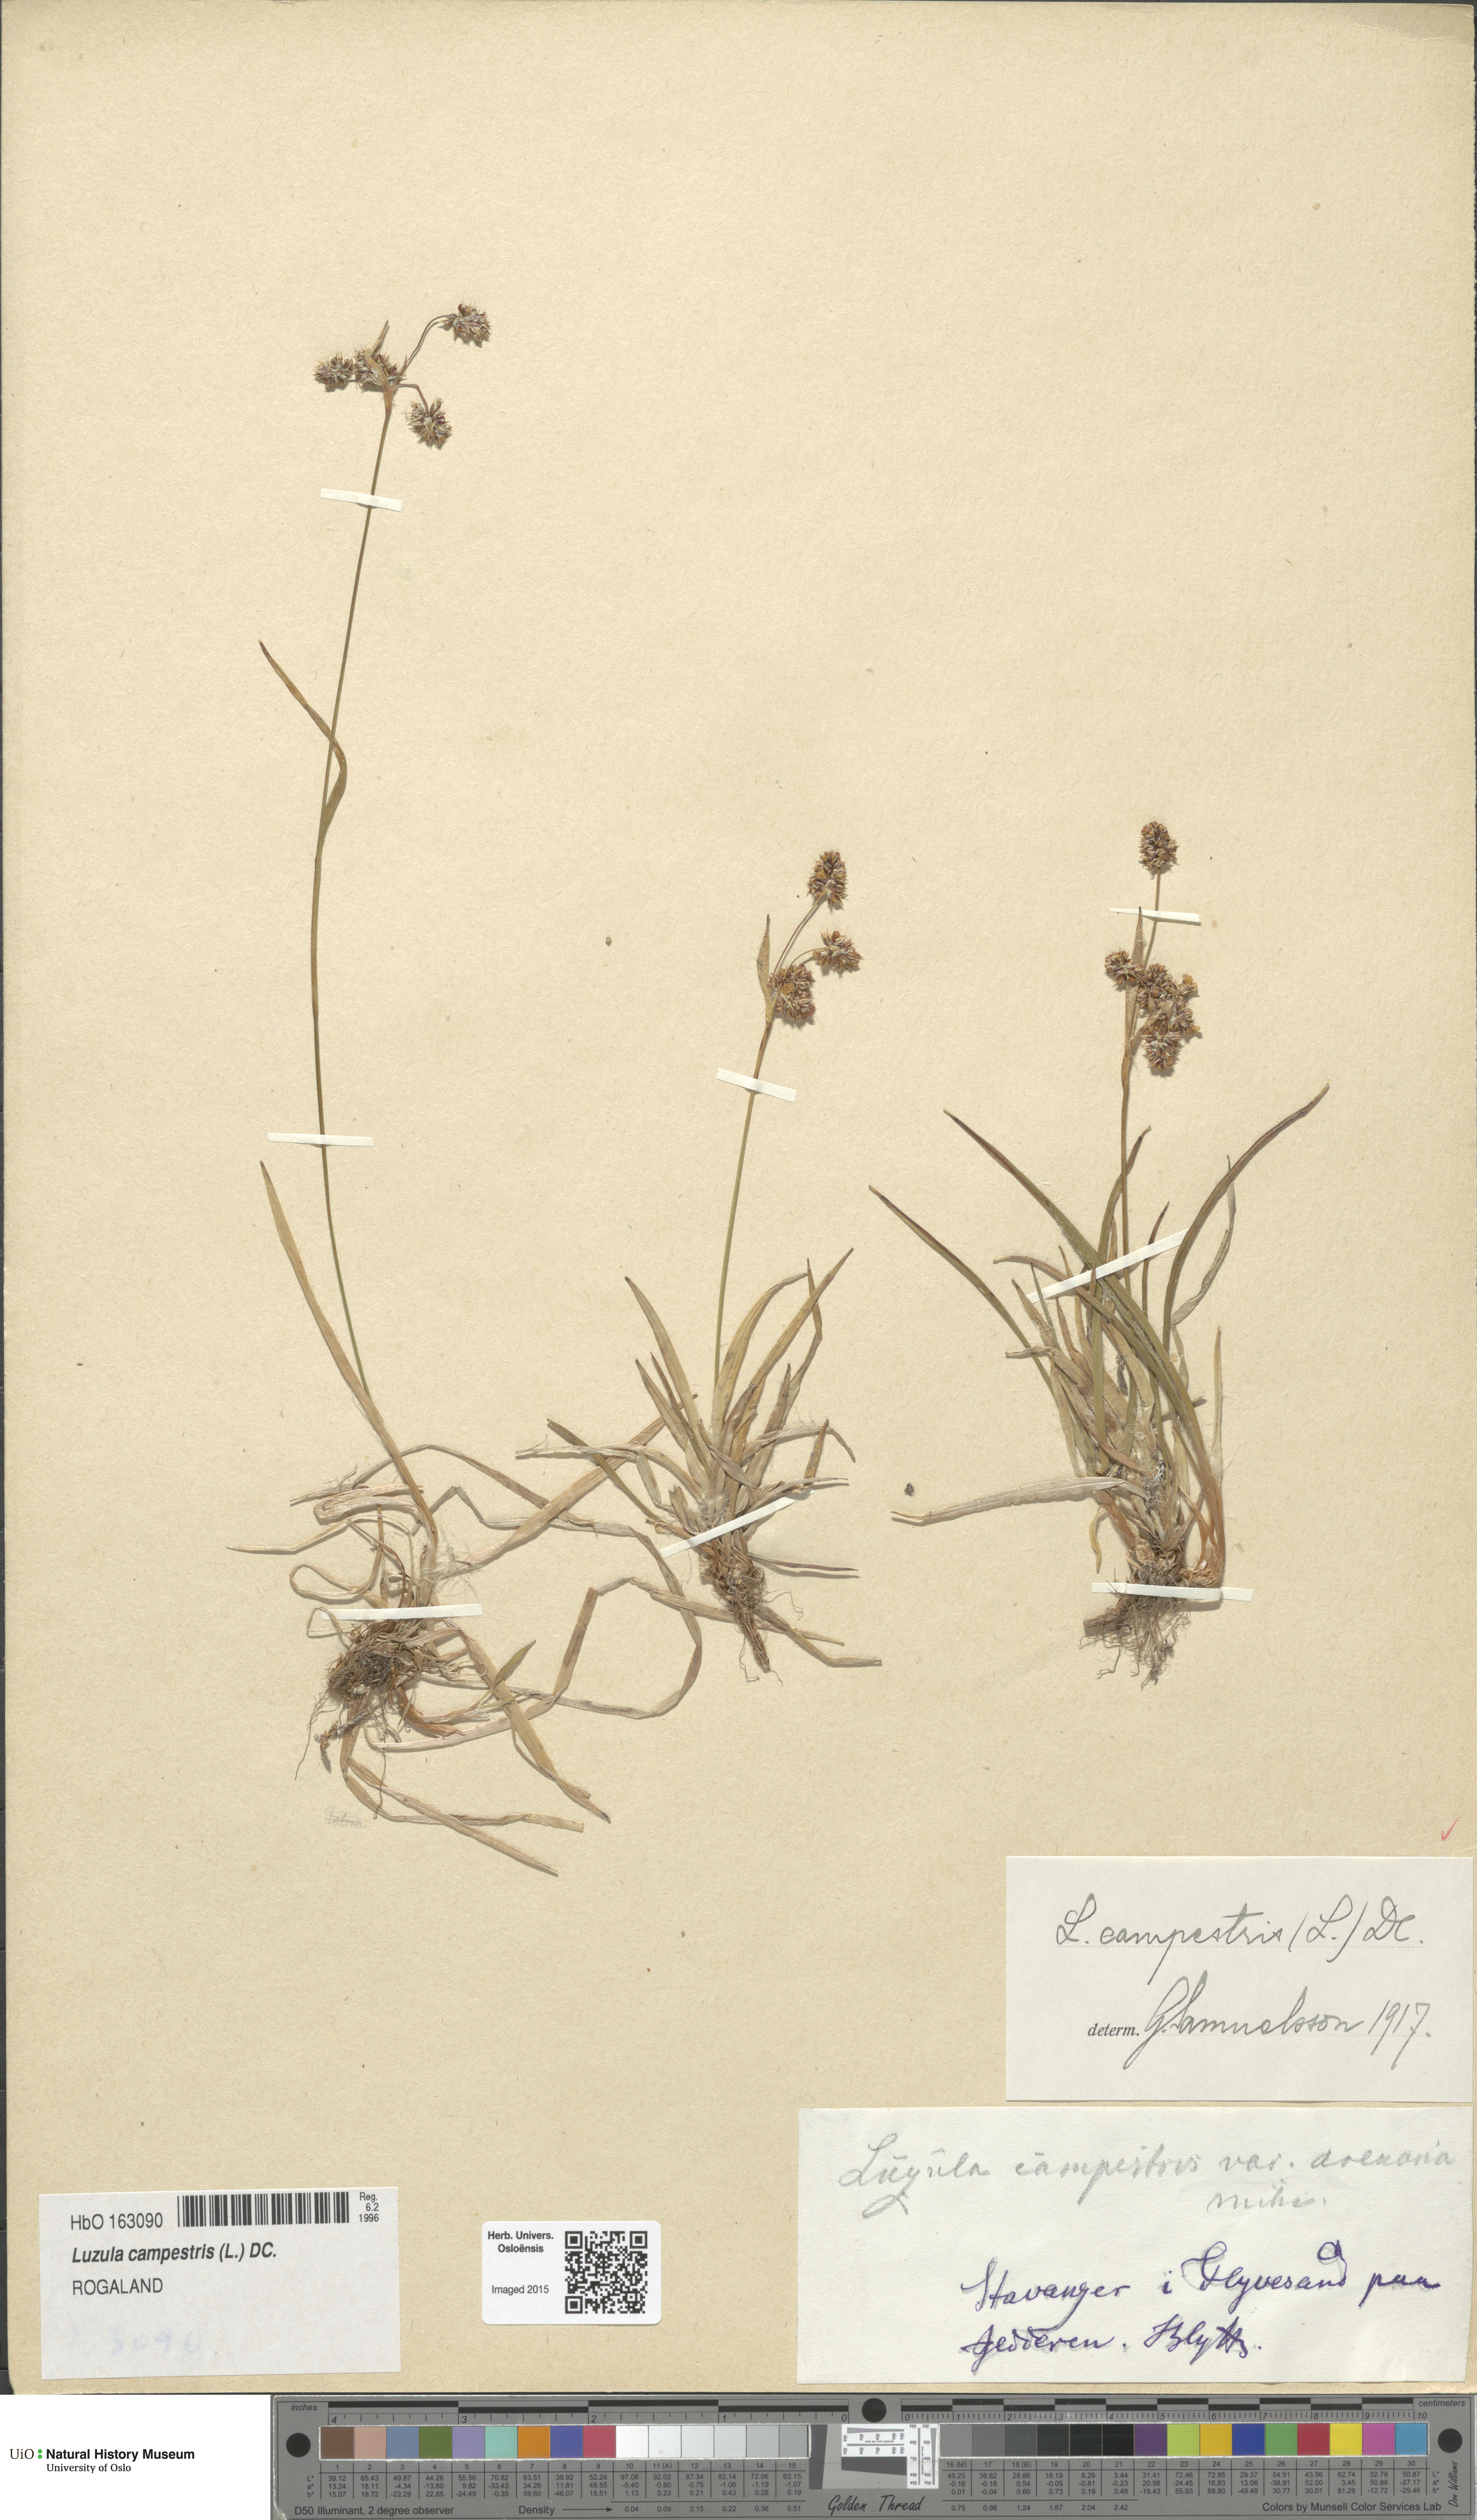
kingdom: Plantae
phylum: Tracheophyta
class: Liliopsida
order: Poales
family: Juncaceae
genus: Luzula
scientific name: Luzula campestris
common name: Field wood-rush
